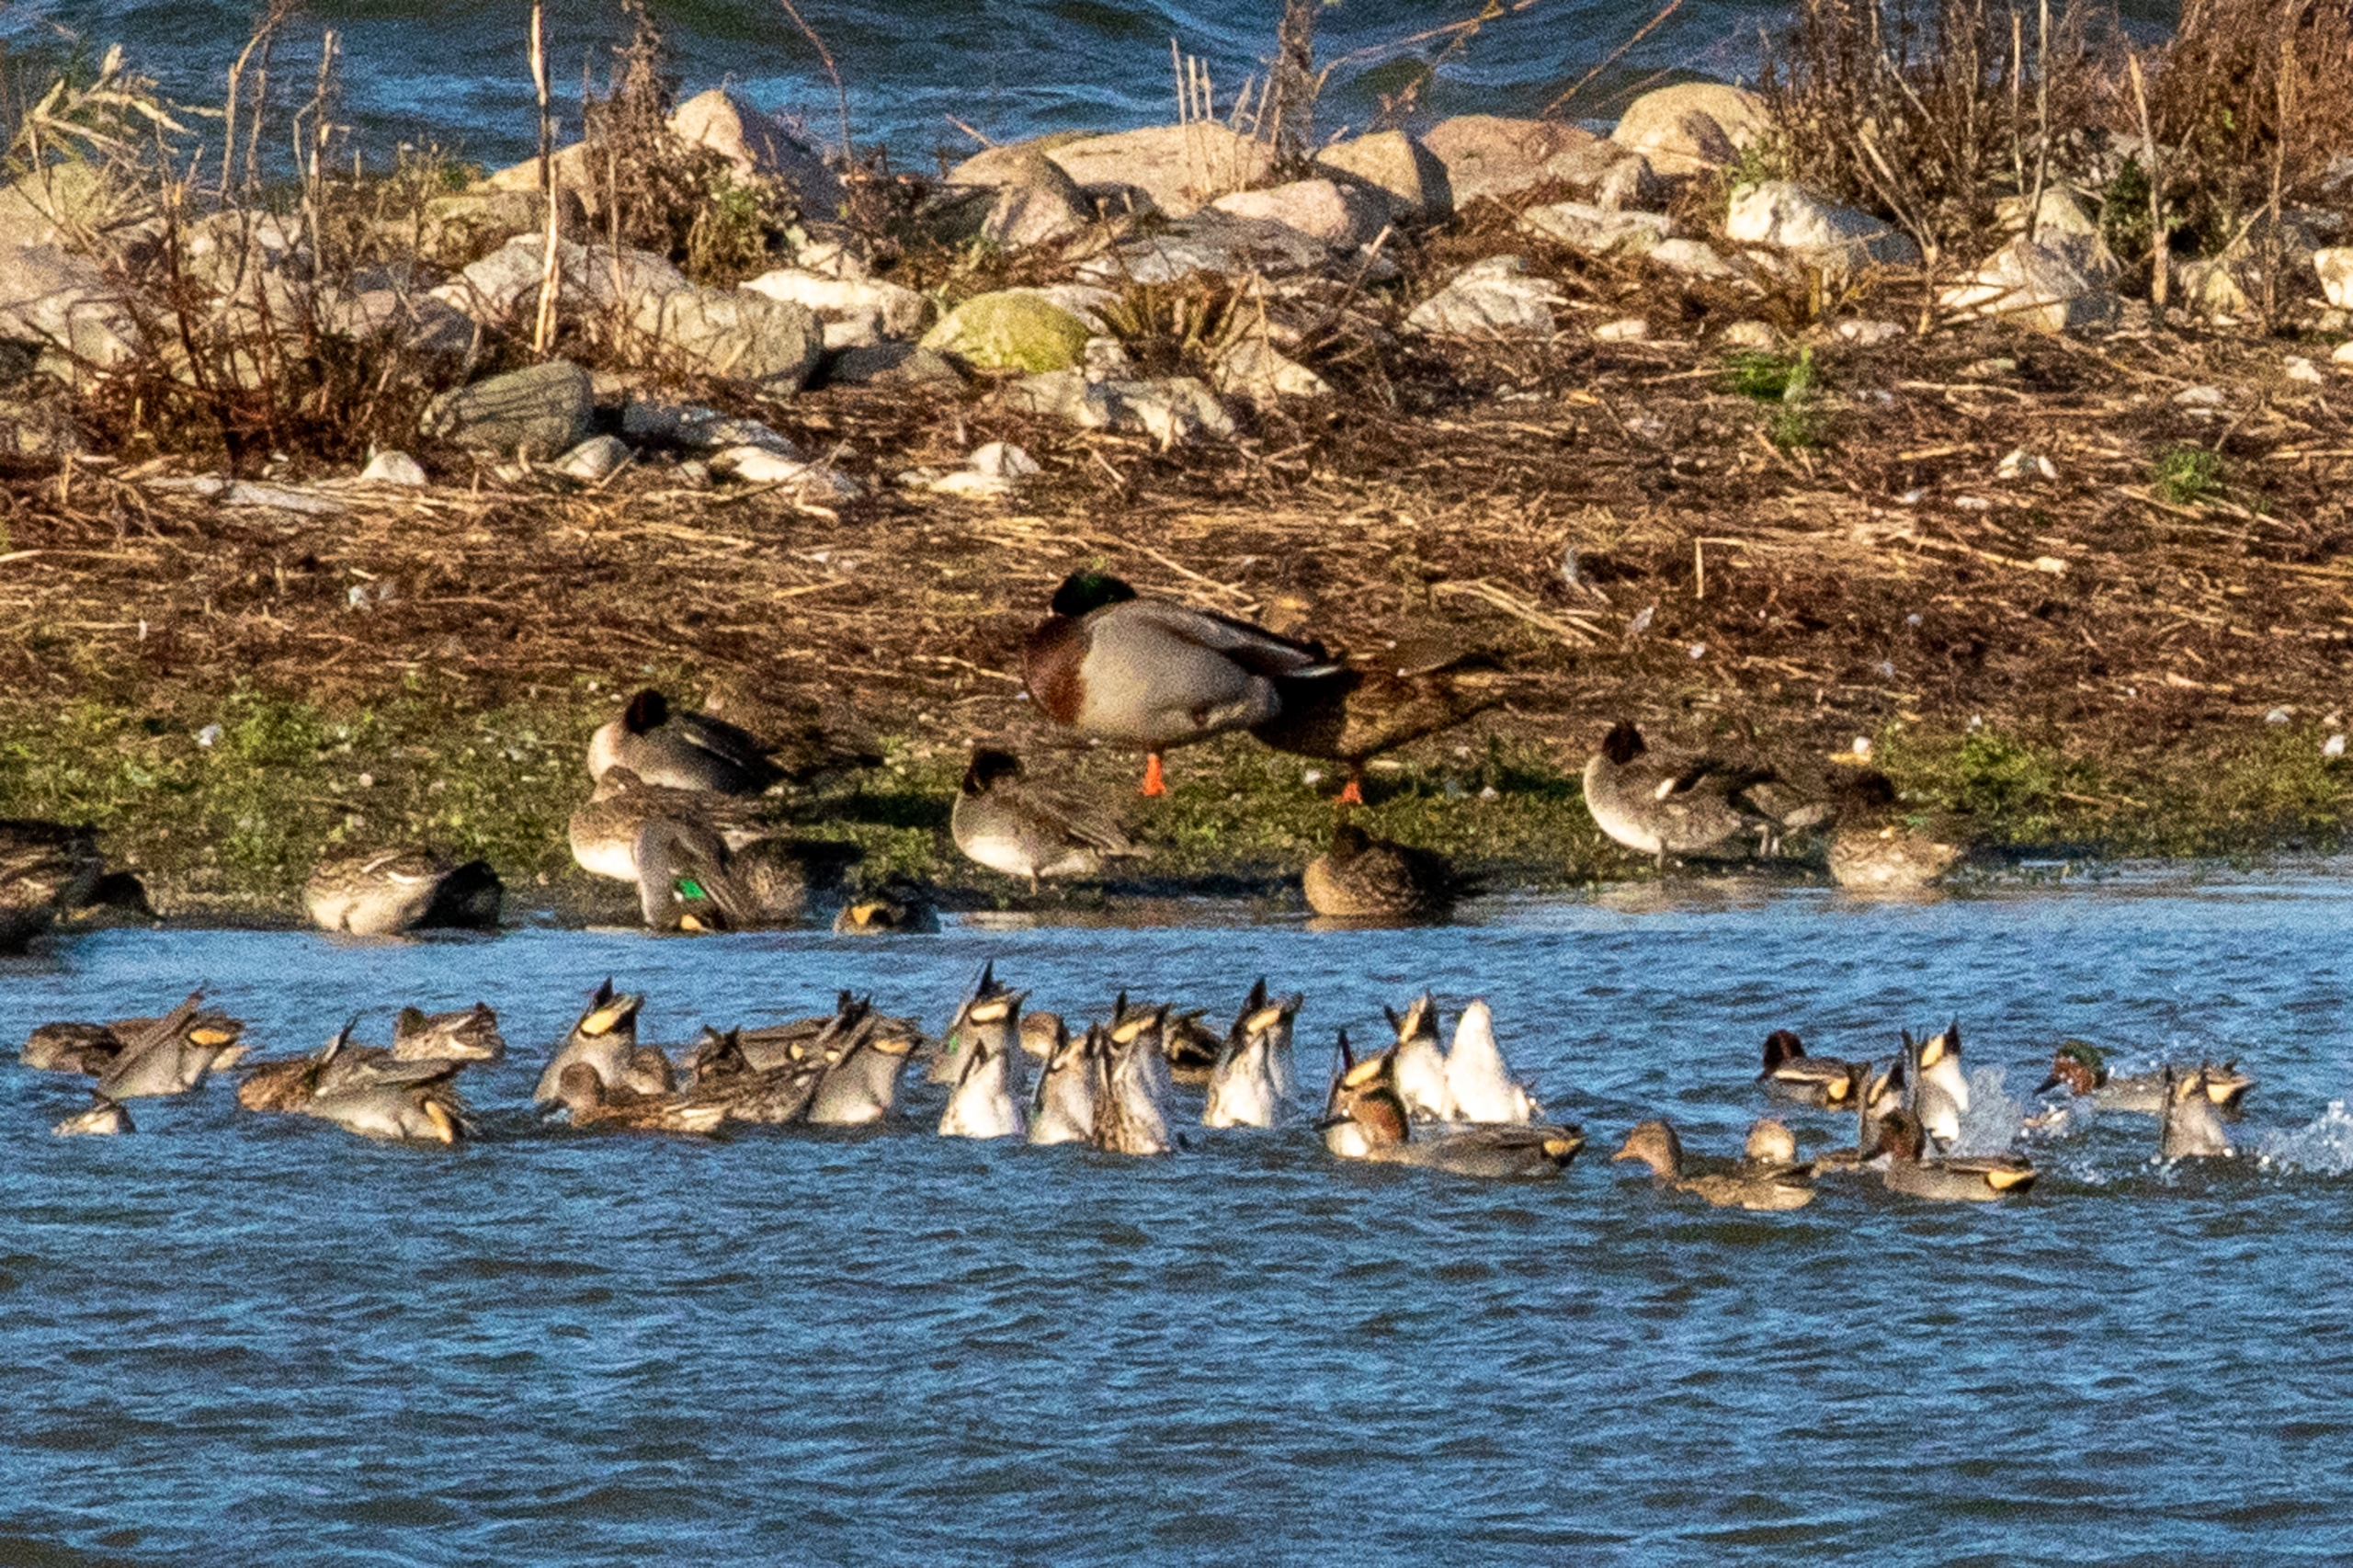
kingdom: Animalia
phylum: Chordata
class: Aves
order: Anseriformes
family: Anatidae
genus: Anas
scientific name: Anas crecca
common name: Krikand
